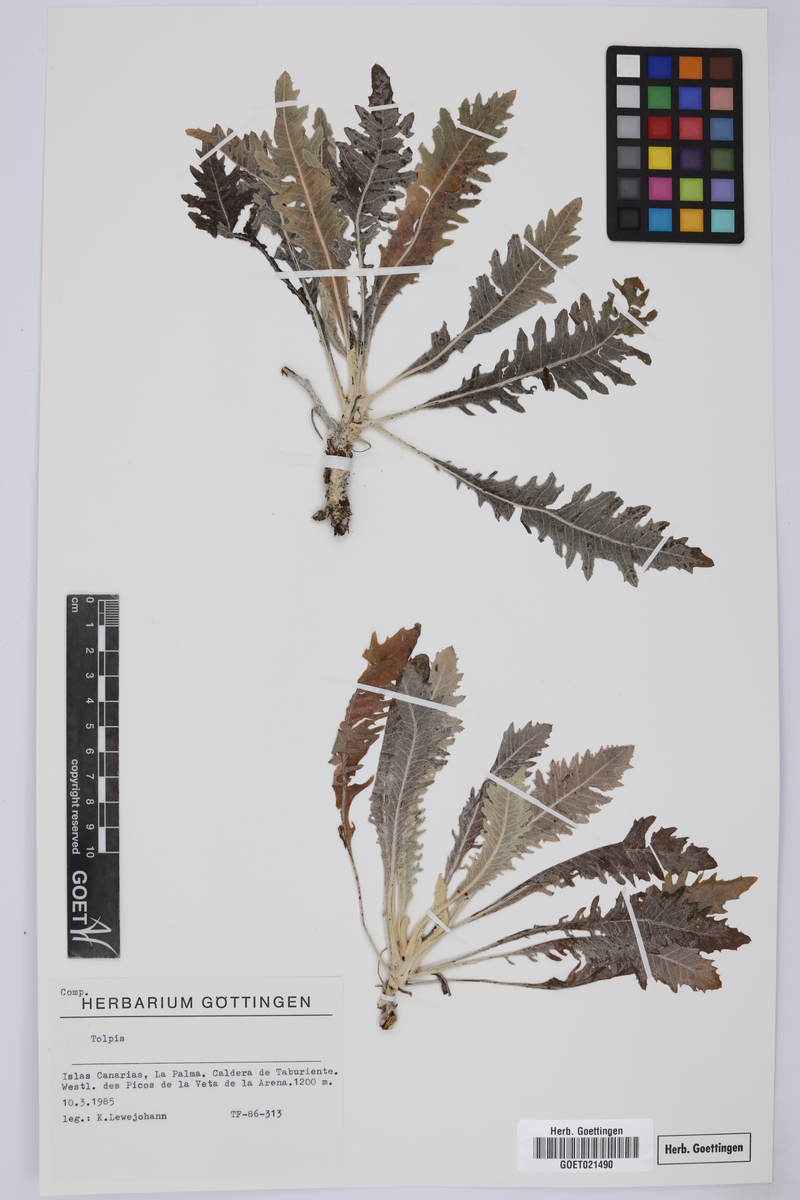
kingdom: Plantae
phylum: Tracheophyta
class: Magnoliopsida
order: Asterales
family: Asteraceae
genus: Tolpis
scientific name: Tolpis
